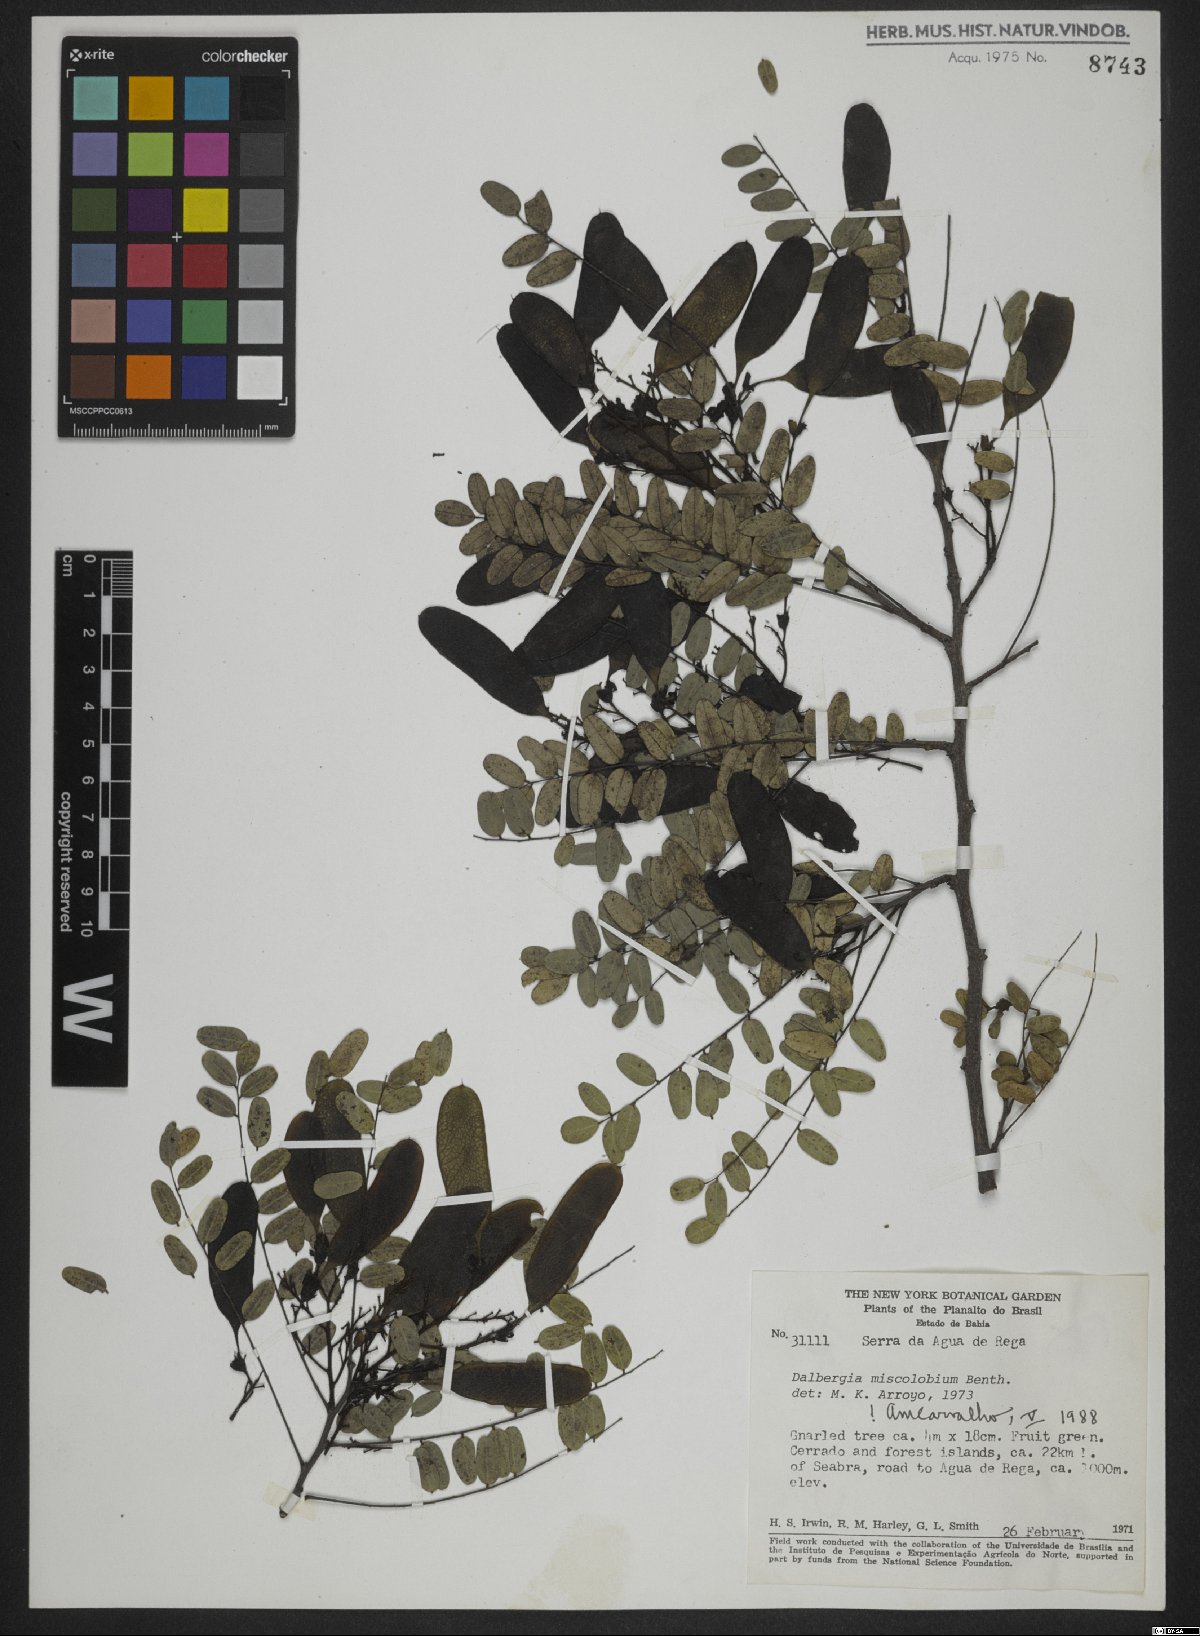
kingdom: Plantae
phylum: Tracheophyta
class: Magnoliopsida
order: Fabales
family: Fabaceae
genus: Dalbergia
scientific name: Dalbergia miscolobium
